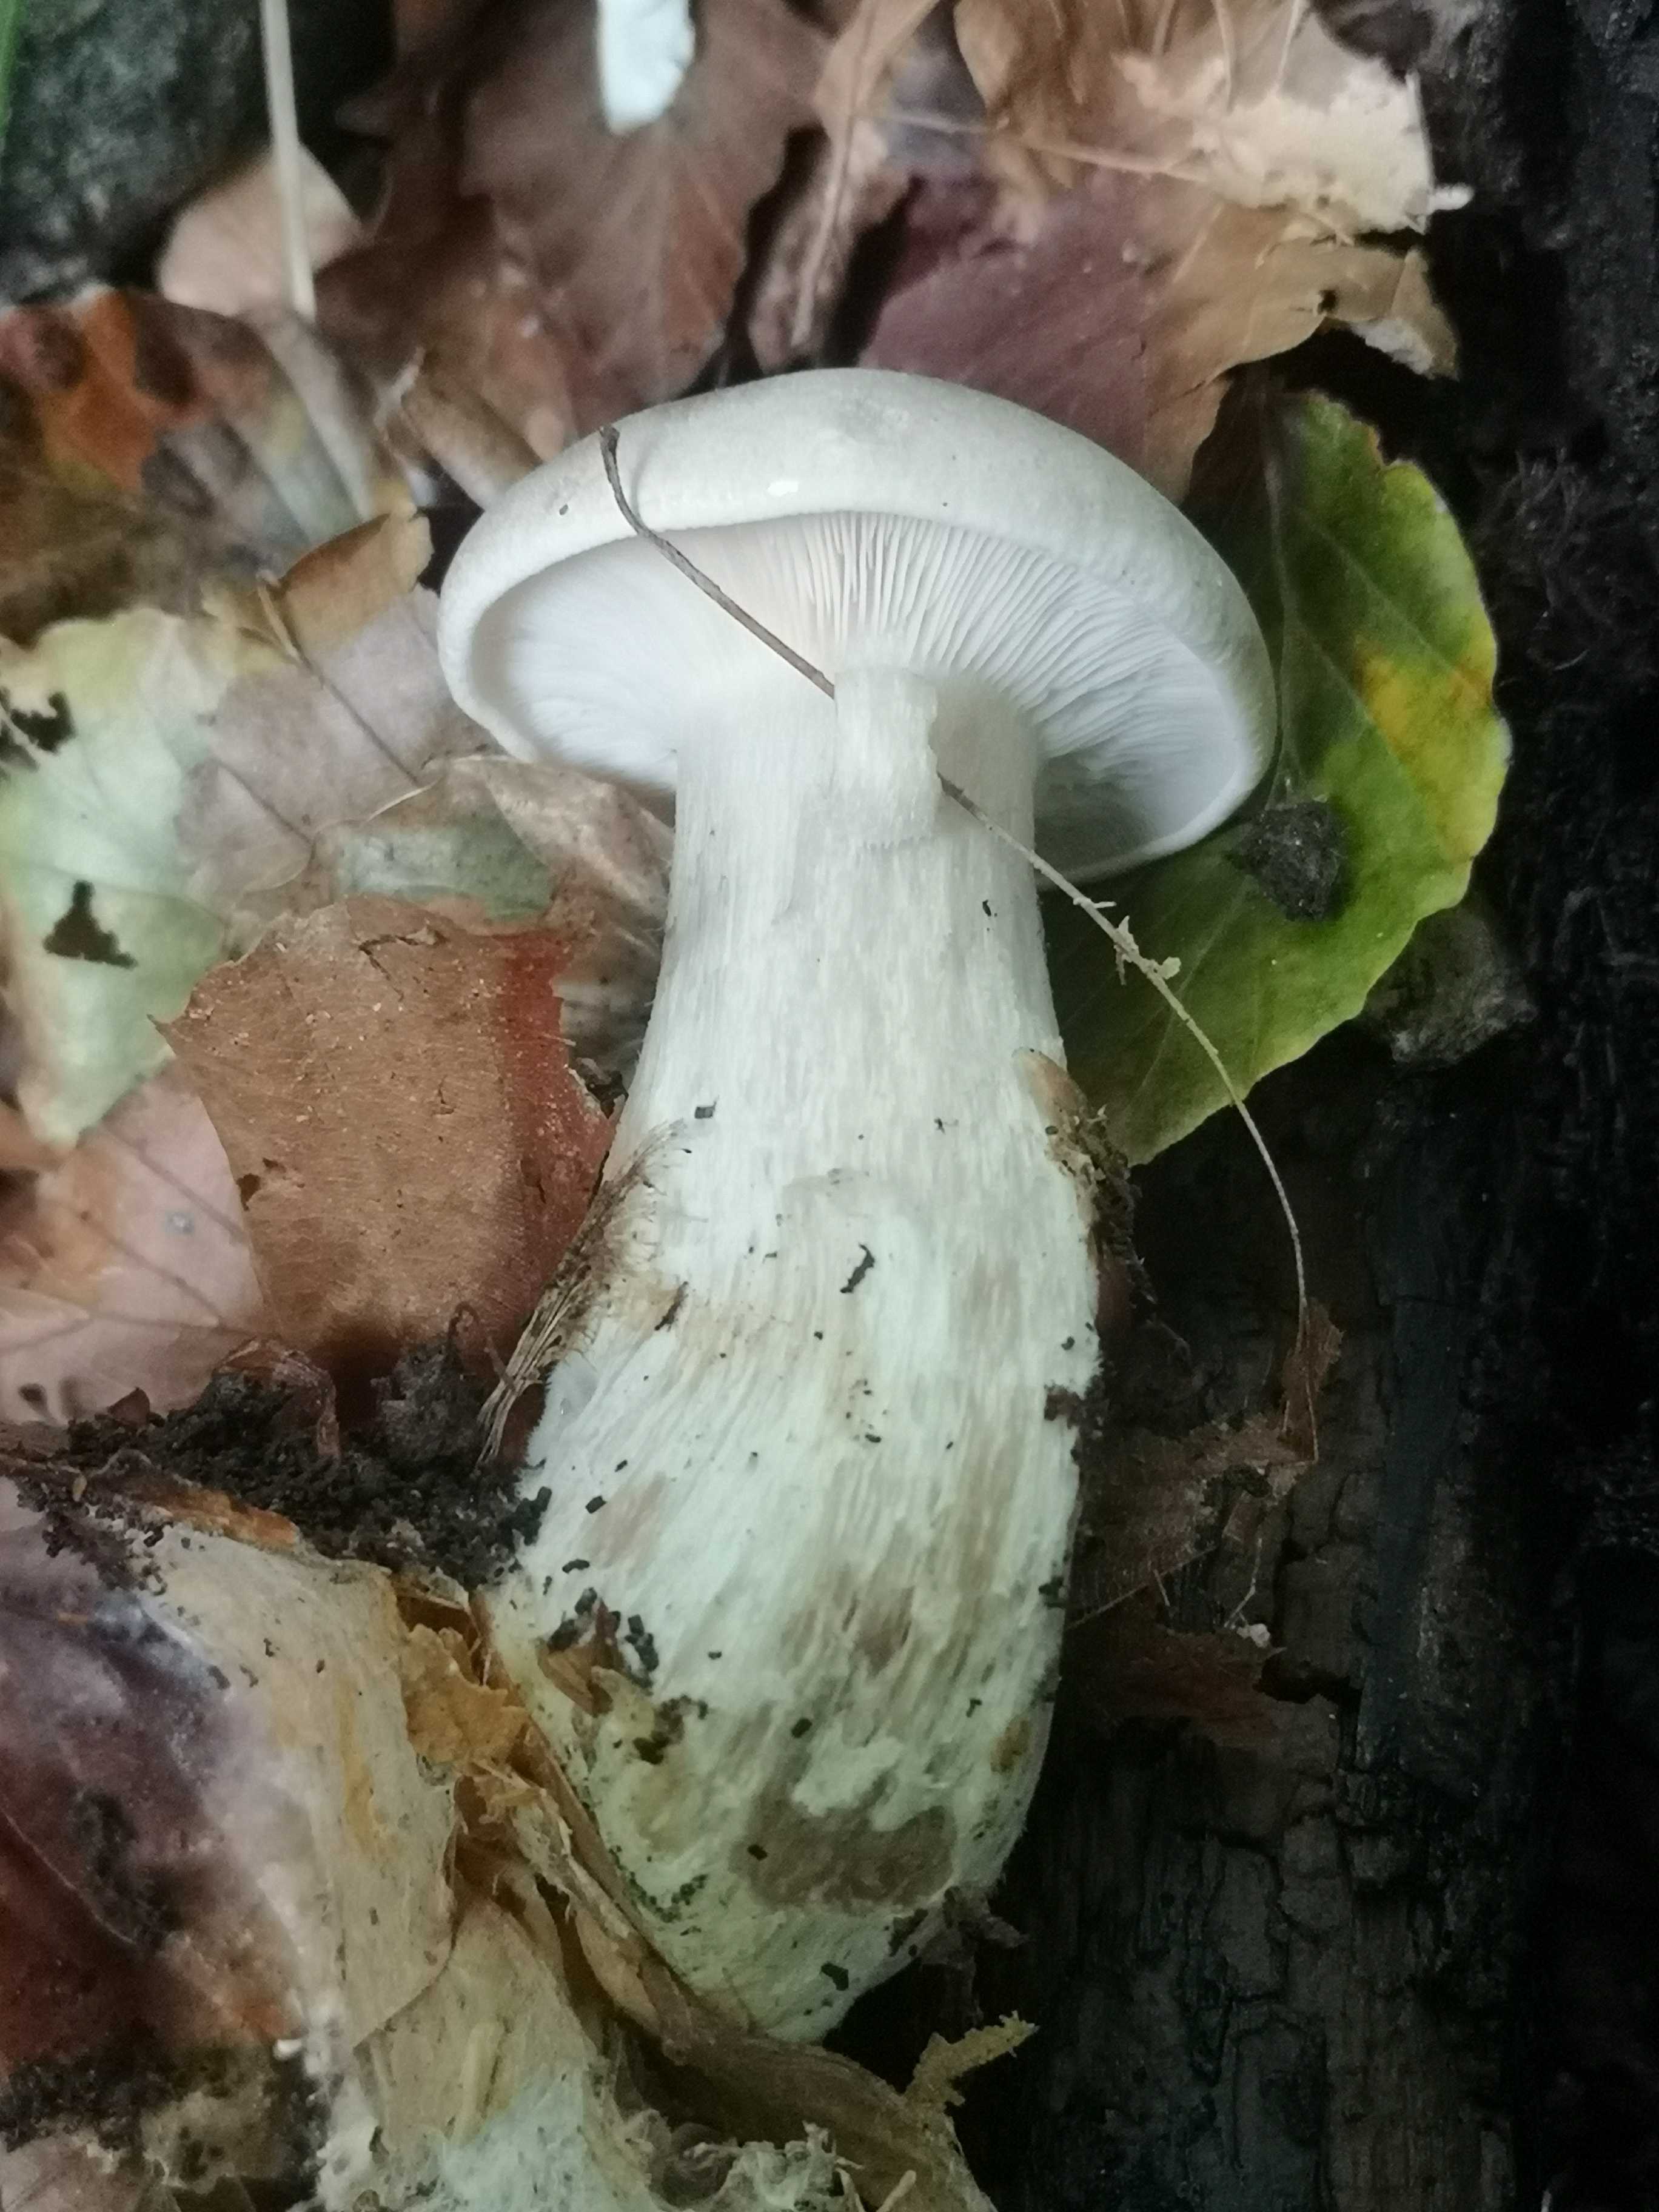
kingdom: Fungi
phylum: Basidiomycota
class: Agaricomycetes
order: Agaricales
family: Tricholomataceae
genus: Clitocybe
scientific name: Clitocybe nebularis
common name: tåge-tragthat
